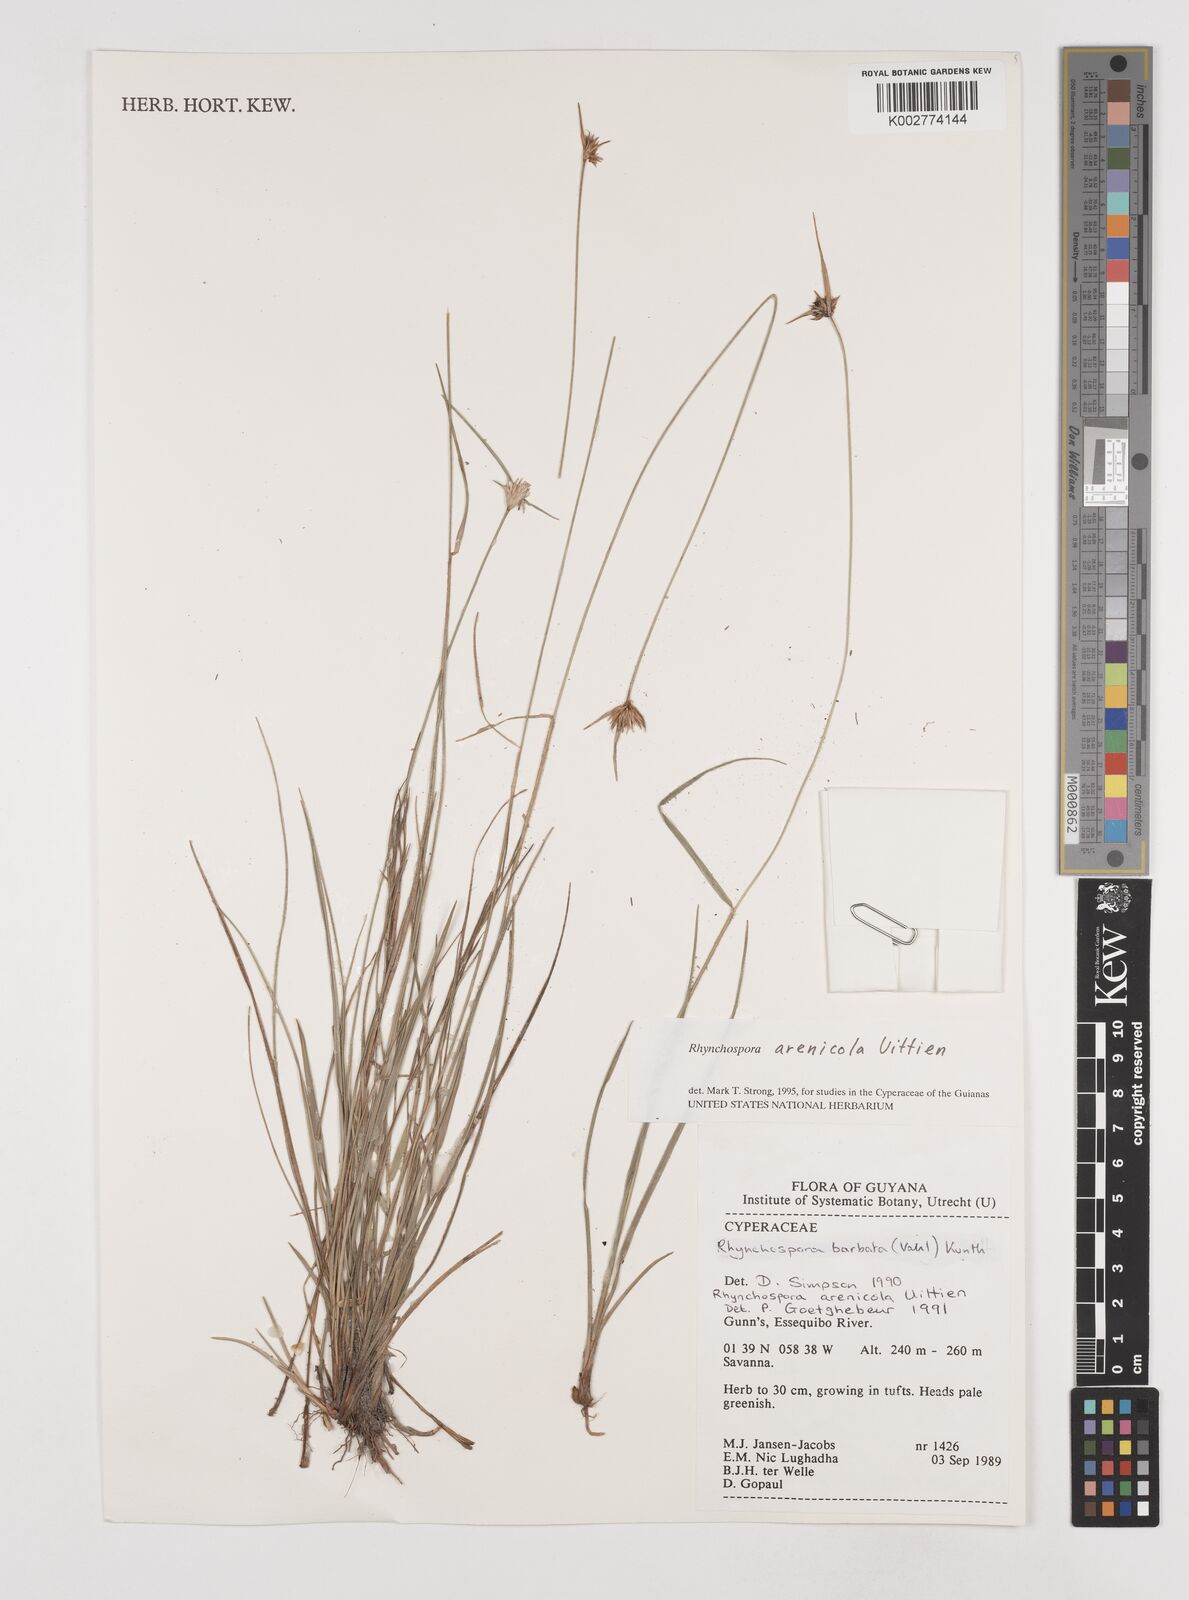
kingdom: Plantae
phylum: Tracheophyta
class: Liliopsida
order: Poales
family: Cyperaceae
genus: Rhynchospora
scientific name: Rhynchospora arenicola
